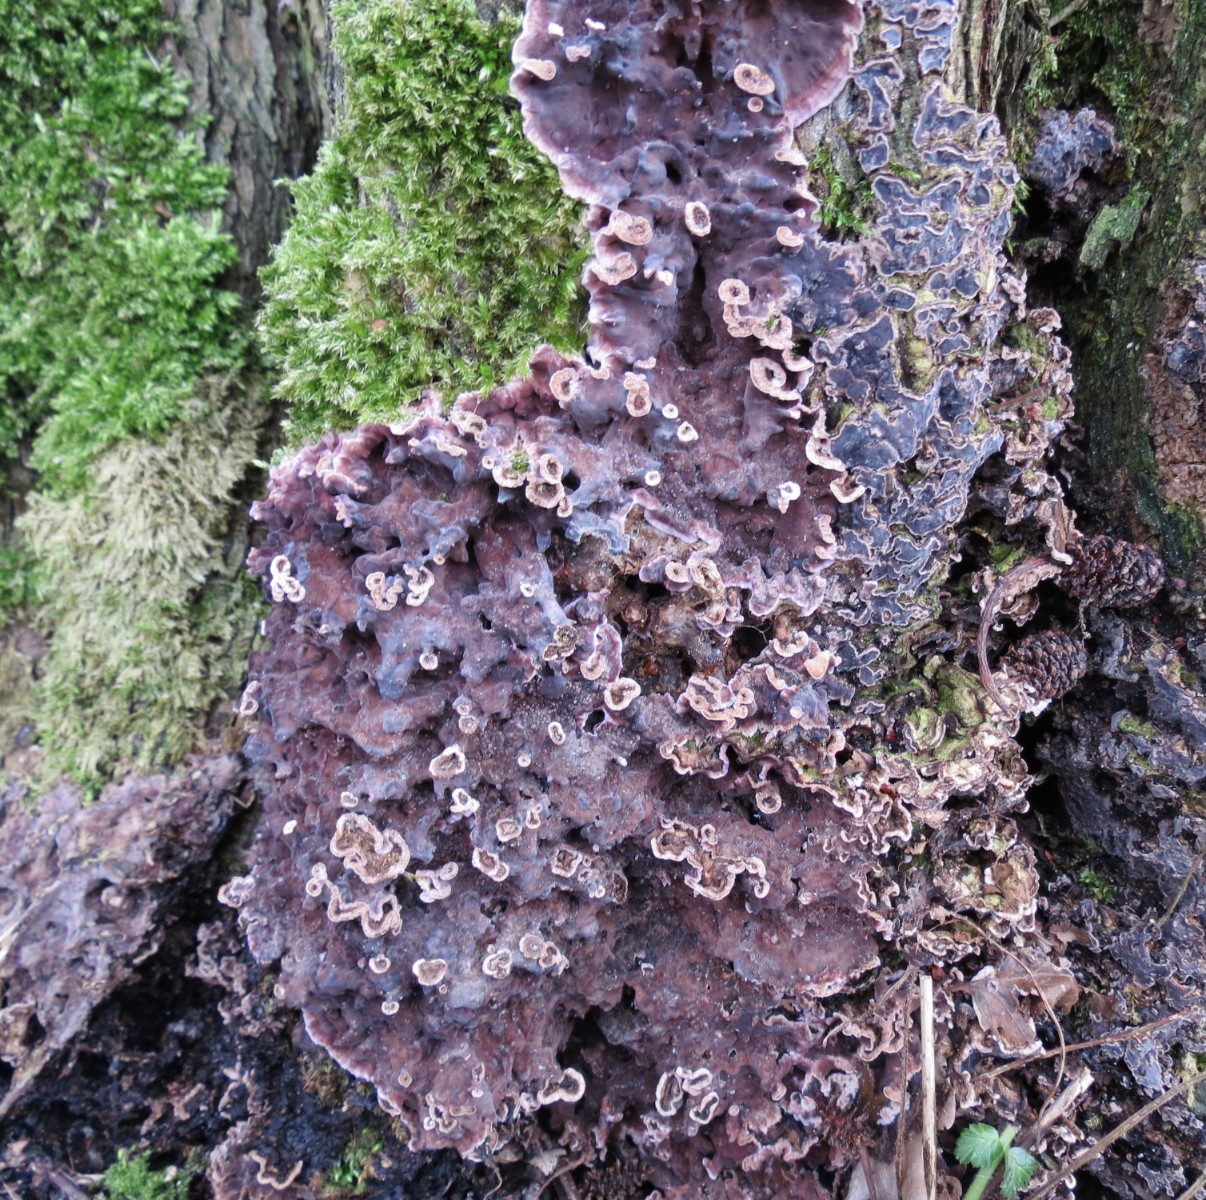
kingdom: Fungi
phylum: Basidiomycota
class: Agaricomycetes
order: Agaricales
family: Cyphellaceae
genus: Chondrostereum
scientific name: Chondrostereum purpureum
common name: purpurlædersvamp
